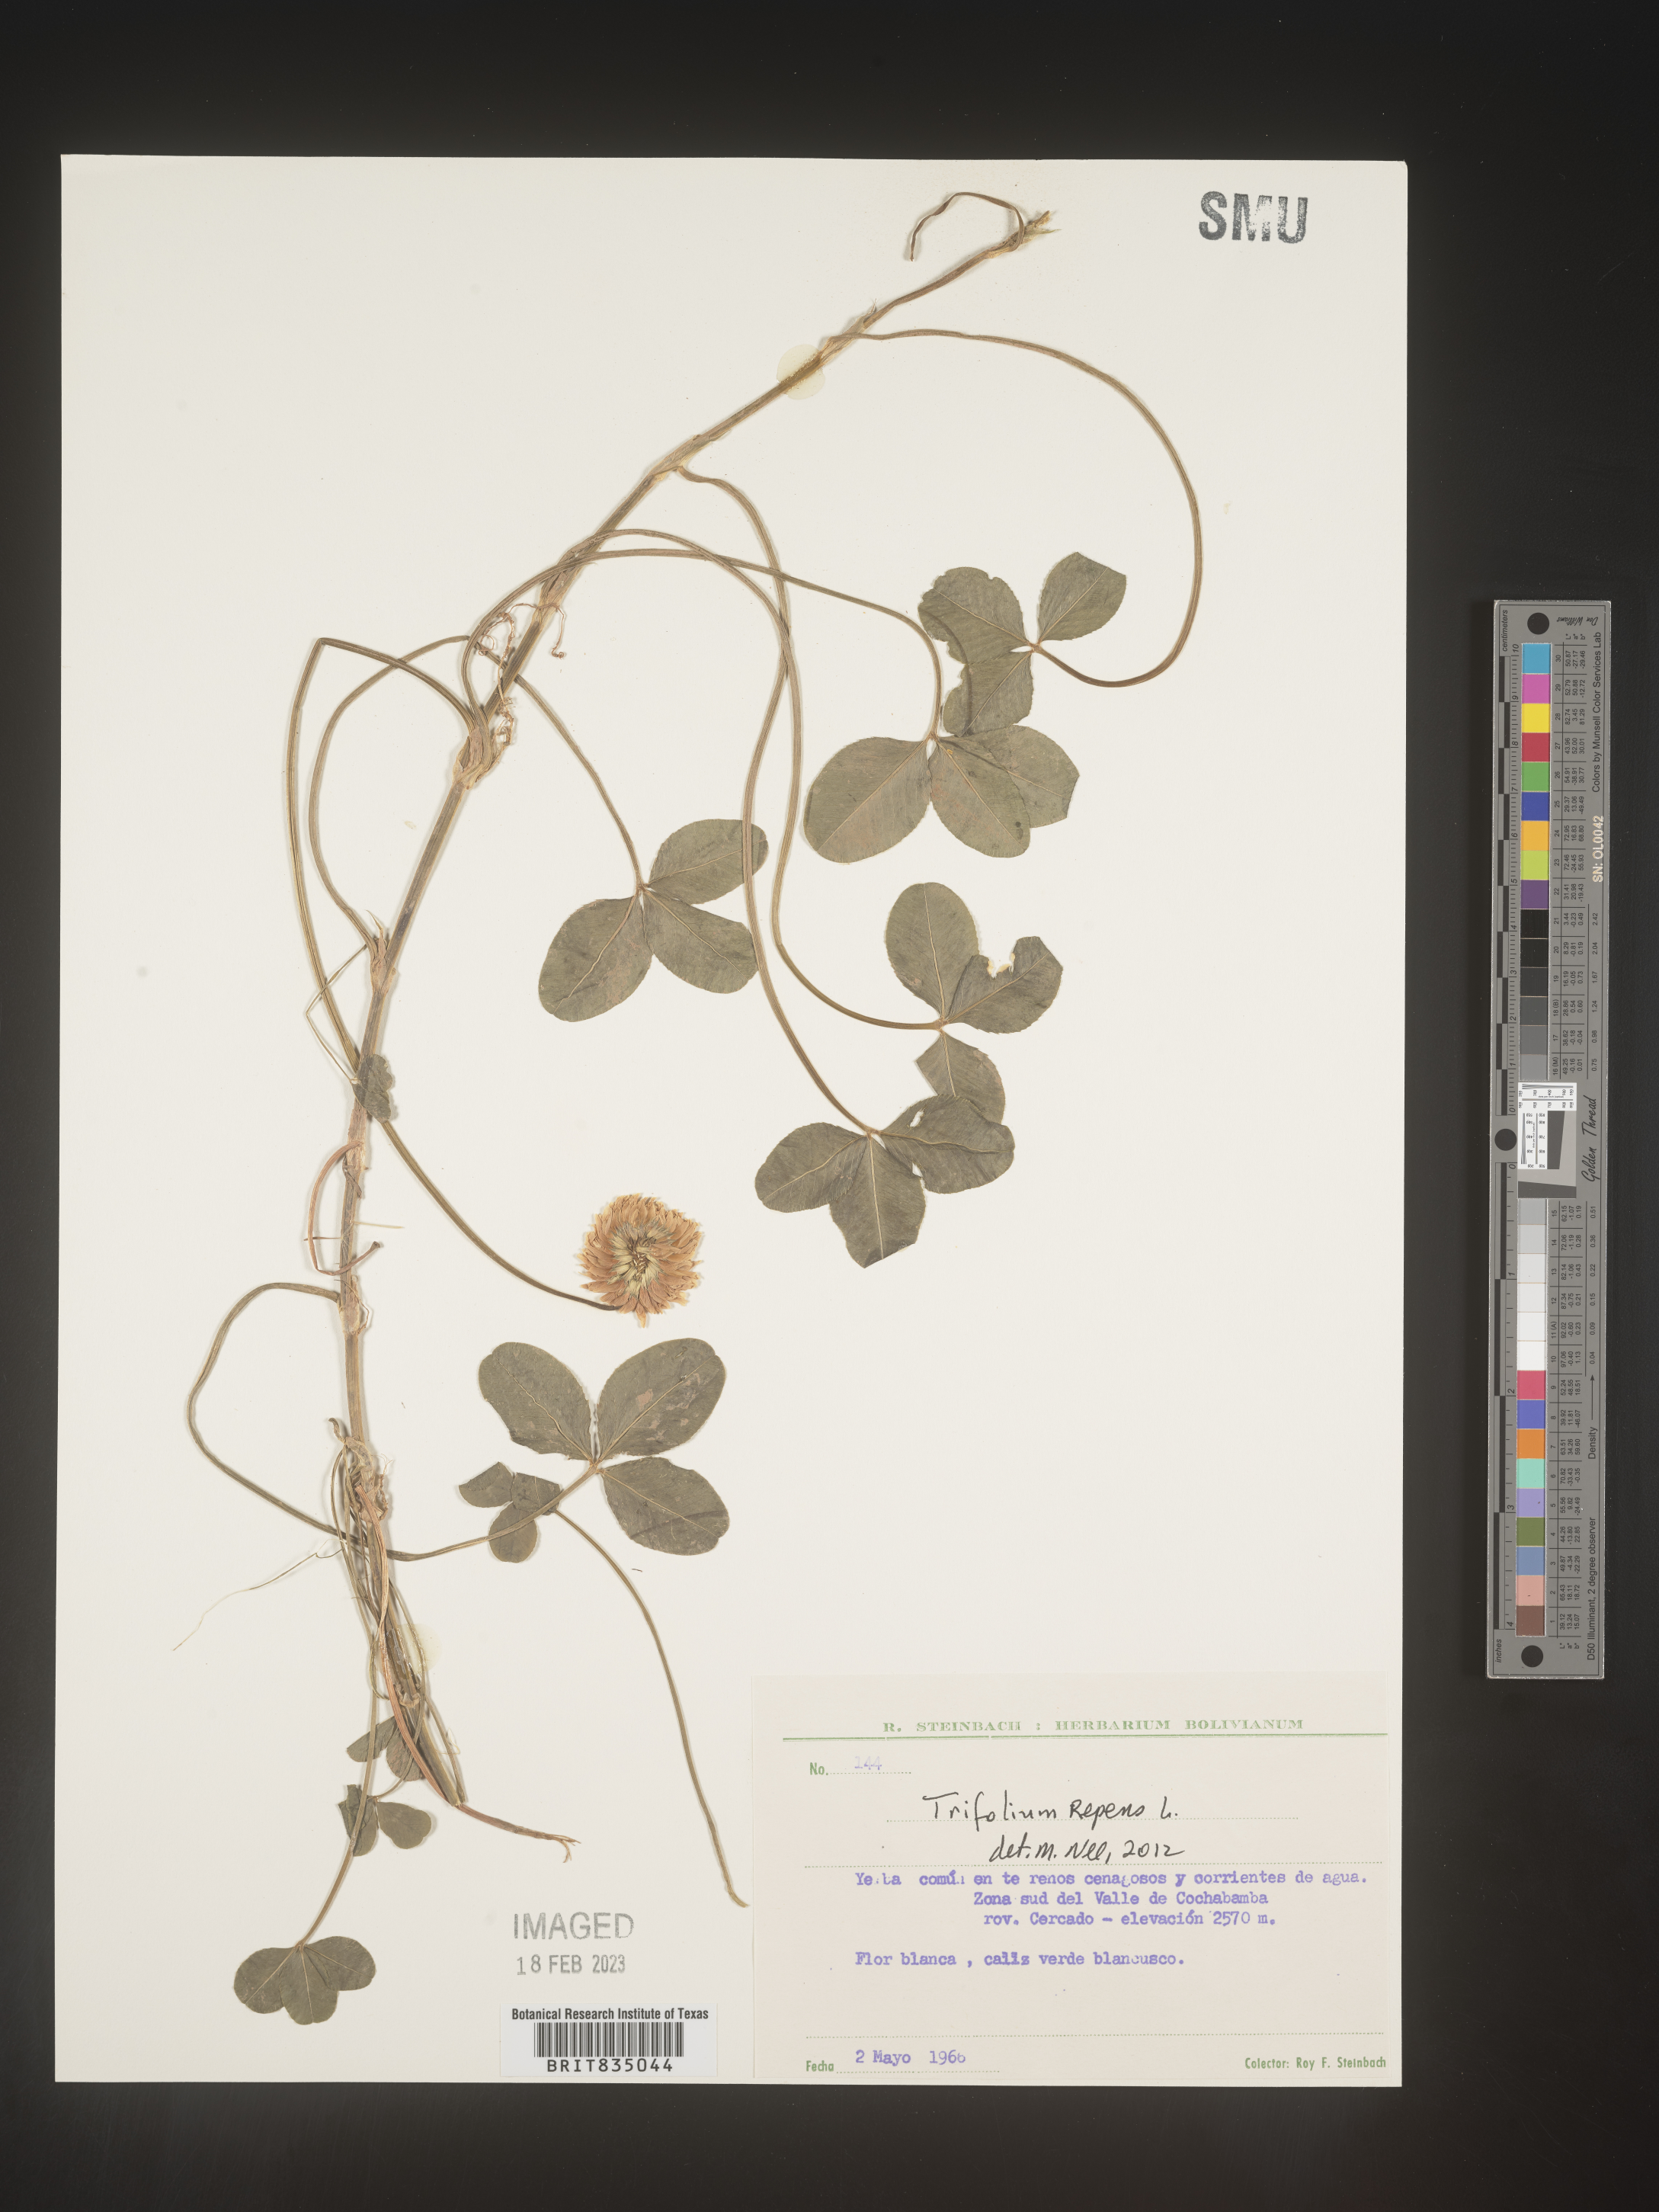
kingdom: Plantae
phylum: Tracheophyta
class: Magnoliopsida
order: Fabales
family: Fabaceae
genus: Trifolium
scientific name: Trifolium
